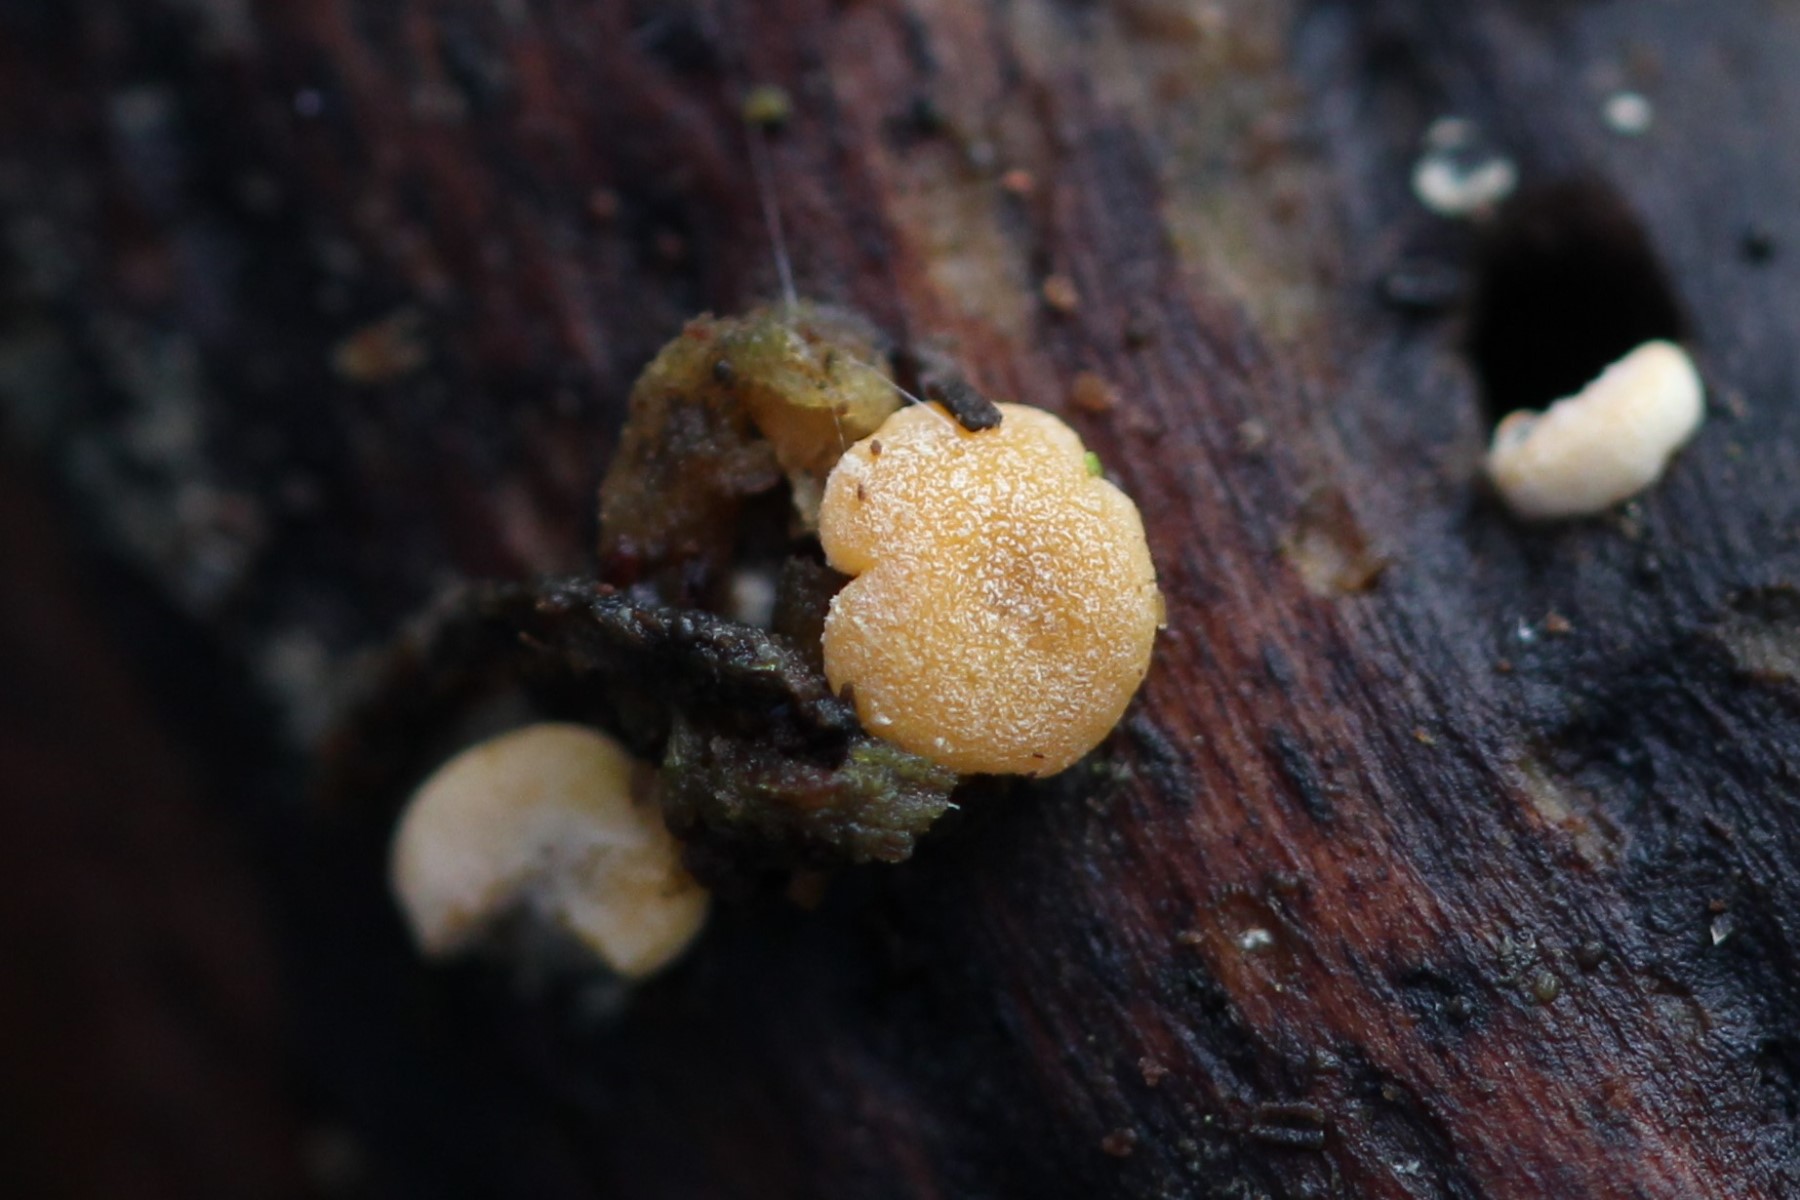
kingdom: Fungi
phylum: Ascomycota
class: Sordariomycetes
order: Hypocreales
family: Hypocreaceae
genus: Trichoderma
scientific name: Trichoderma aureoviride
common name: æggegul kødkerne
